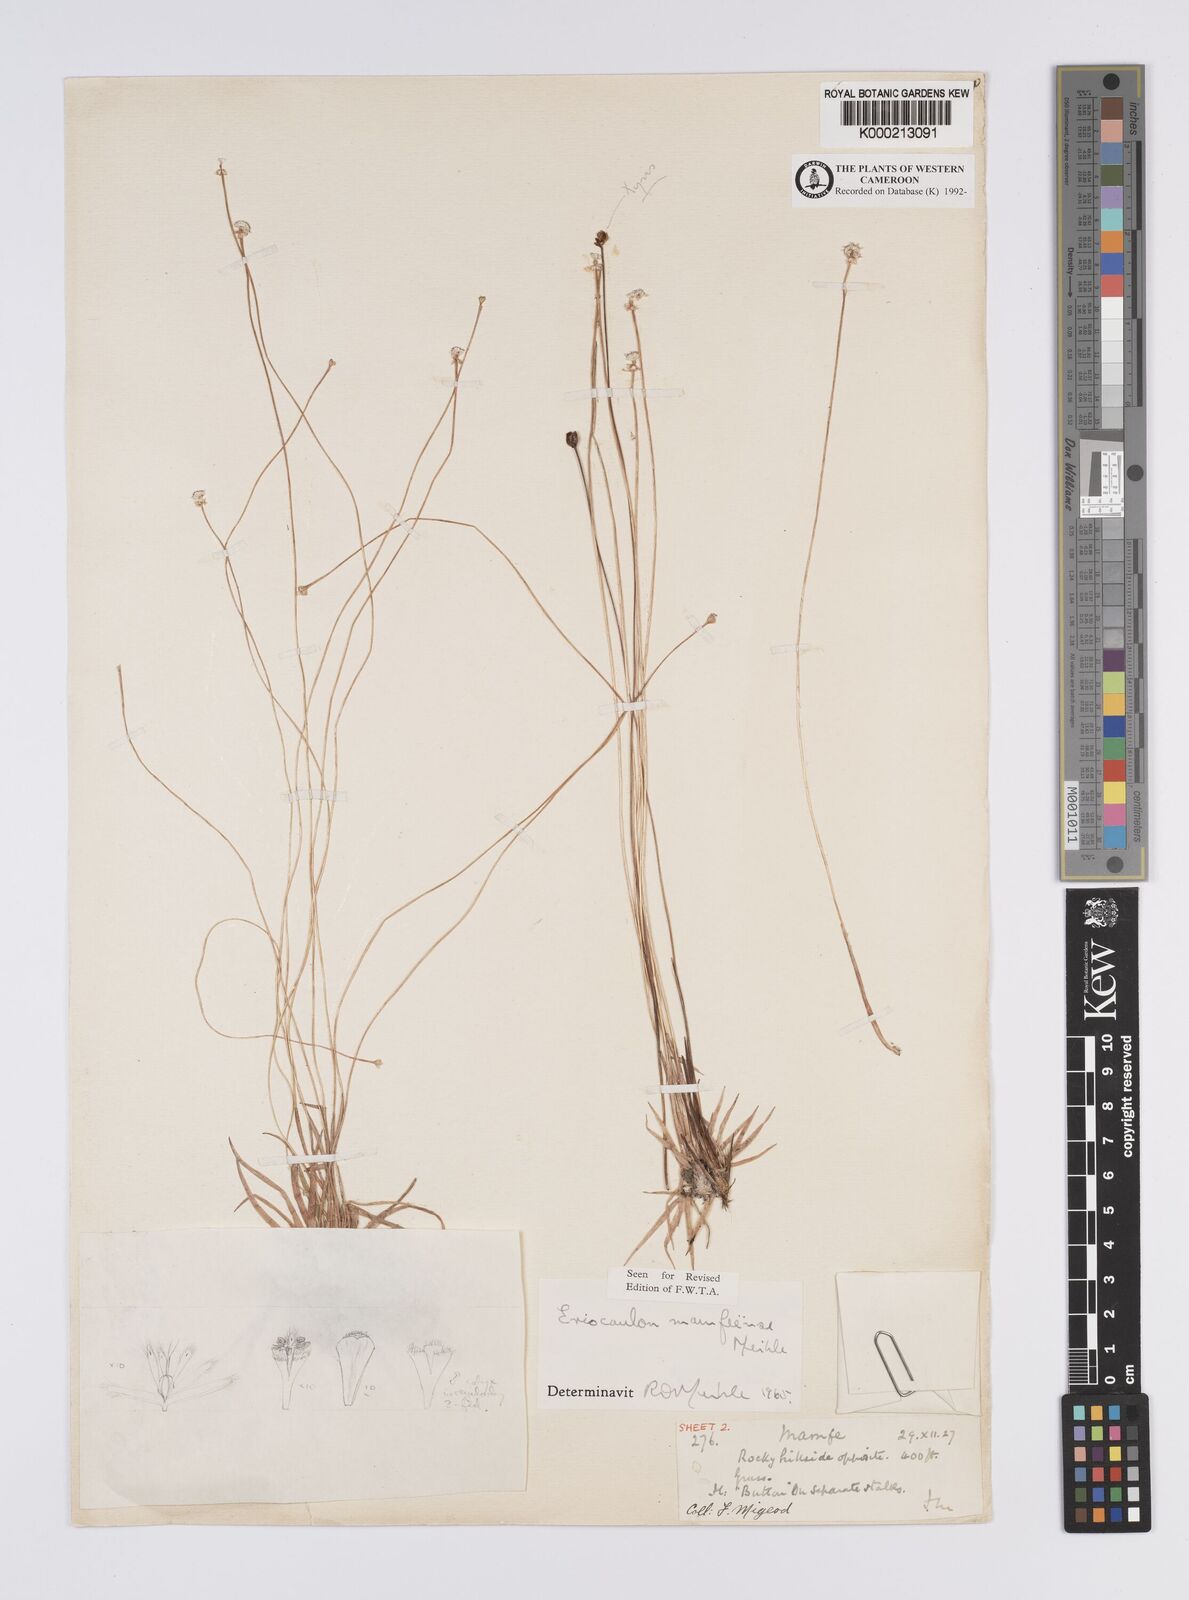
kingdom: Plantae
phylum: Tracheophyta
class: Liliopsida
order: Poales
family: Eriocaulaceae
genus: Eriocaulon
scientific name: Eriocaulon
